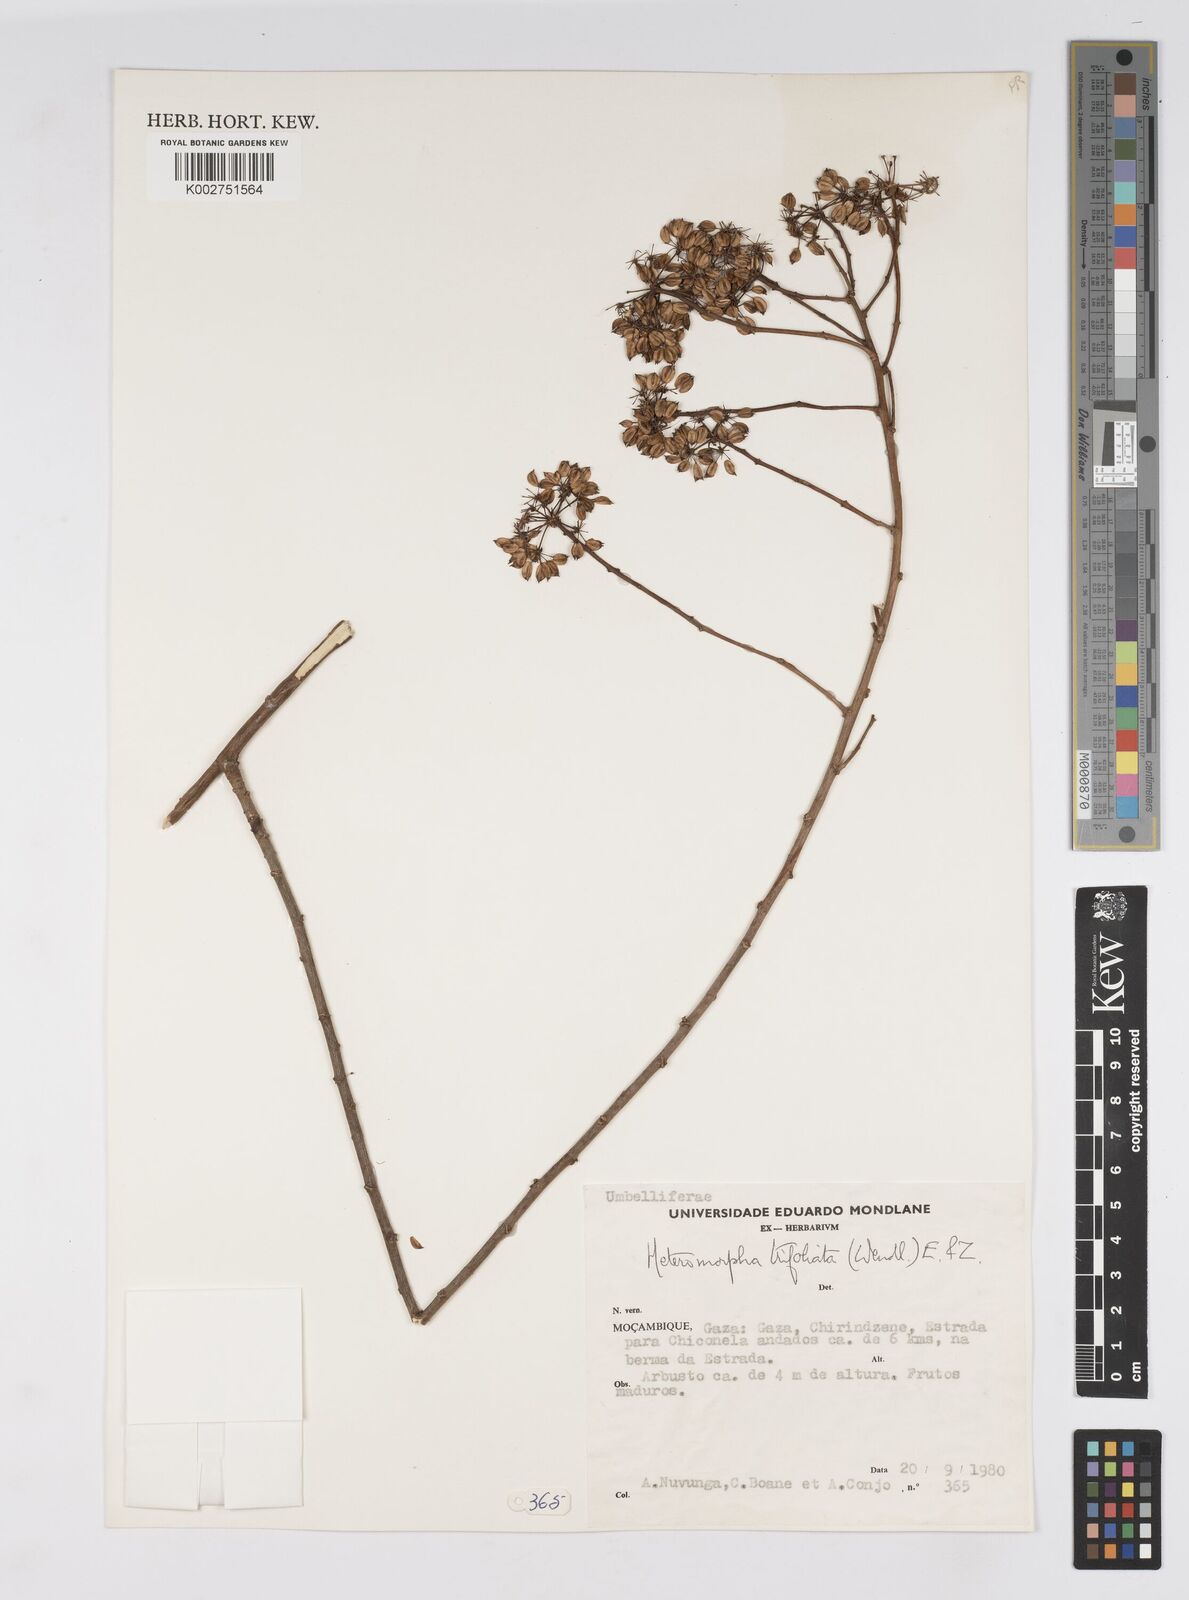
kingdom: Plantae
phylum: Tracheophyta
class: Magnoliopsida
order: Apiales
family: Apiaceae
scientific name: Apiaceae
